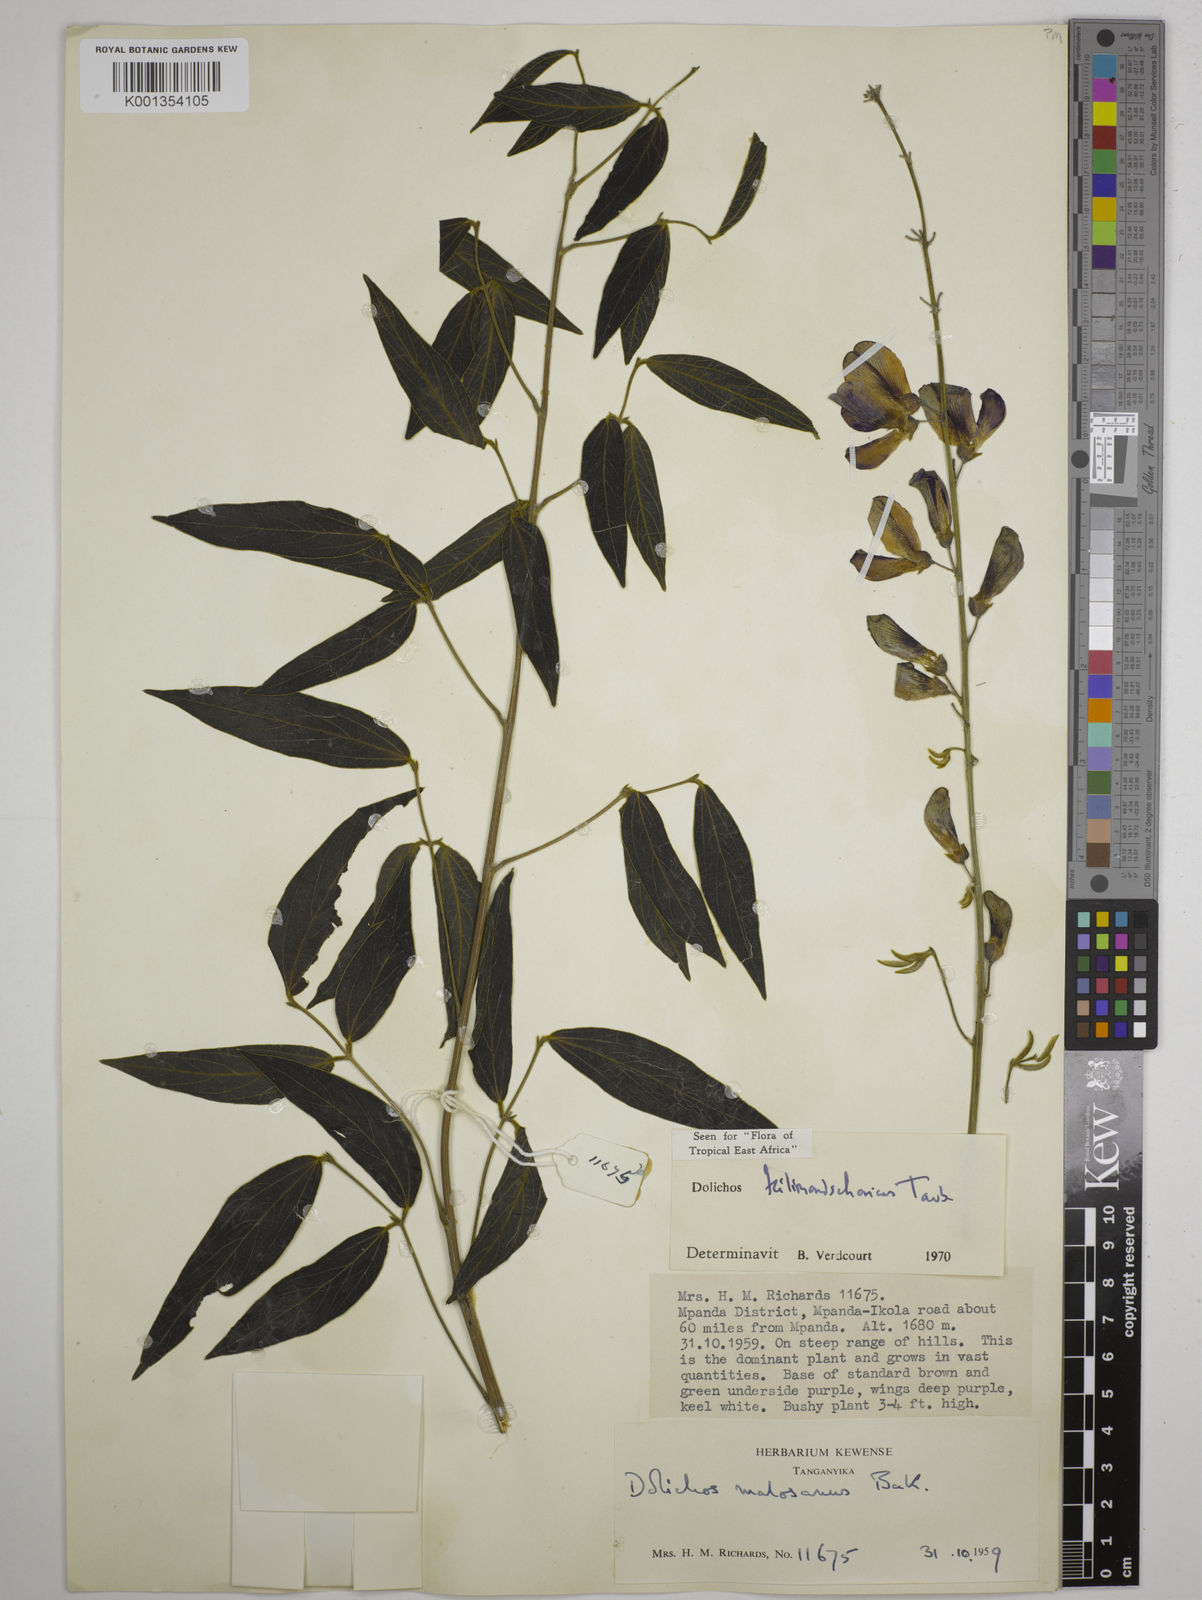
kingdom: Plantae
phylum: Tracheophyta
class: Magnoliopsida
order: Fabales
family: Fabaceae
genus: Dolichos
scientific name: Dolichos kilimandscharicus
